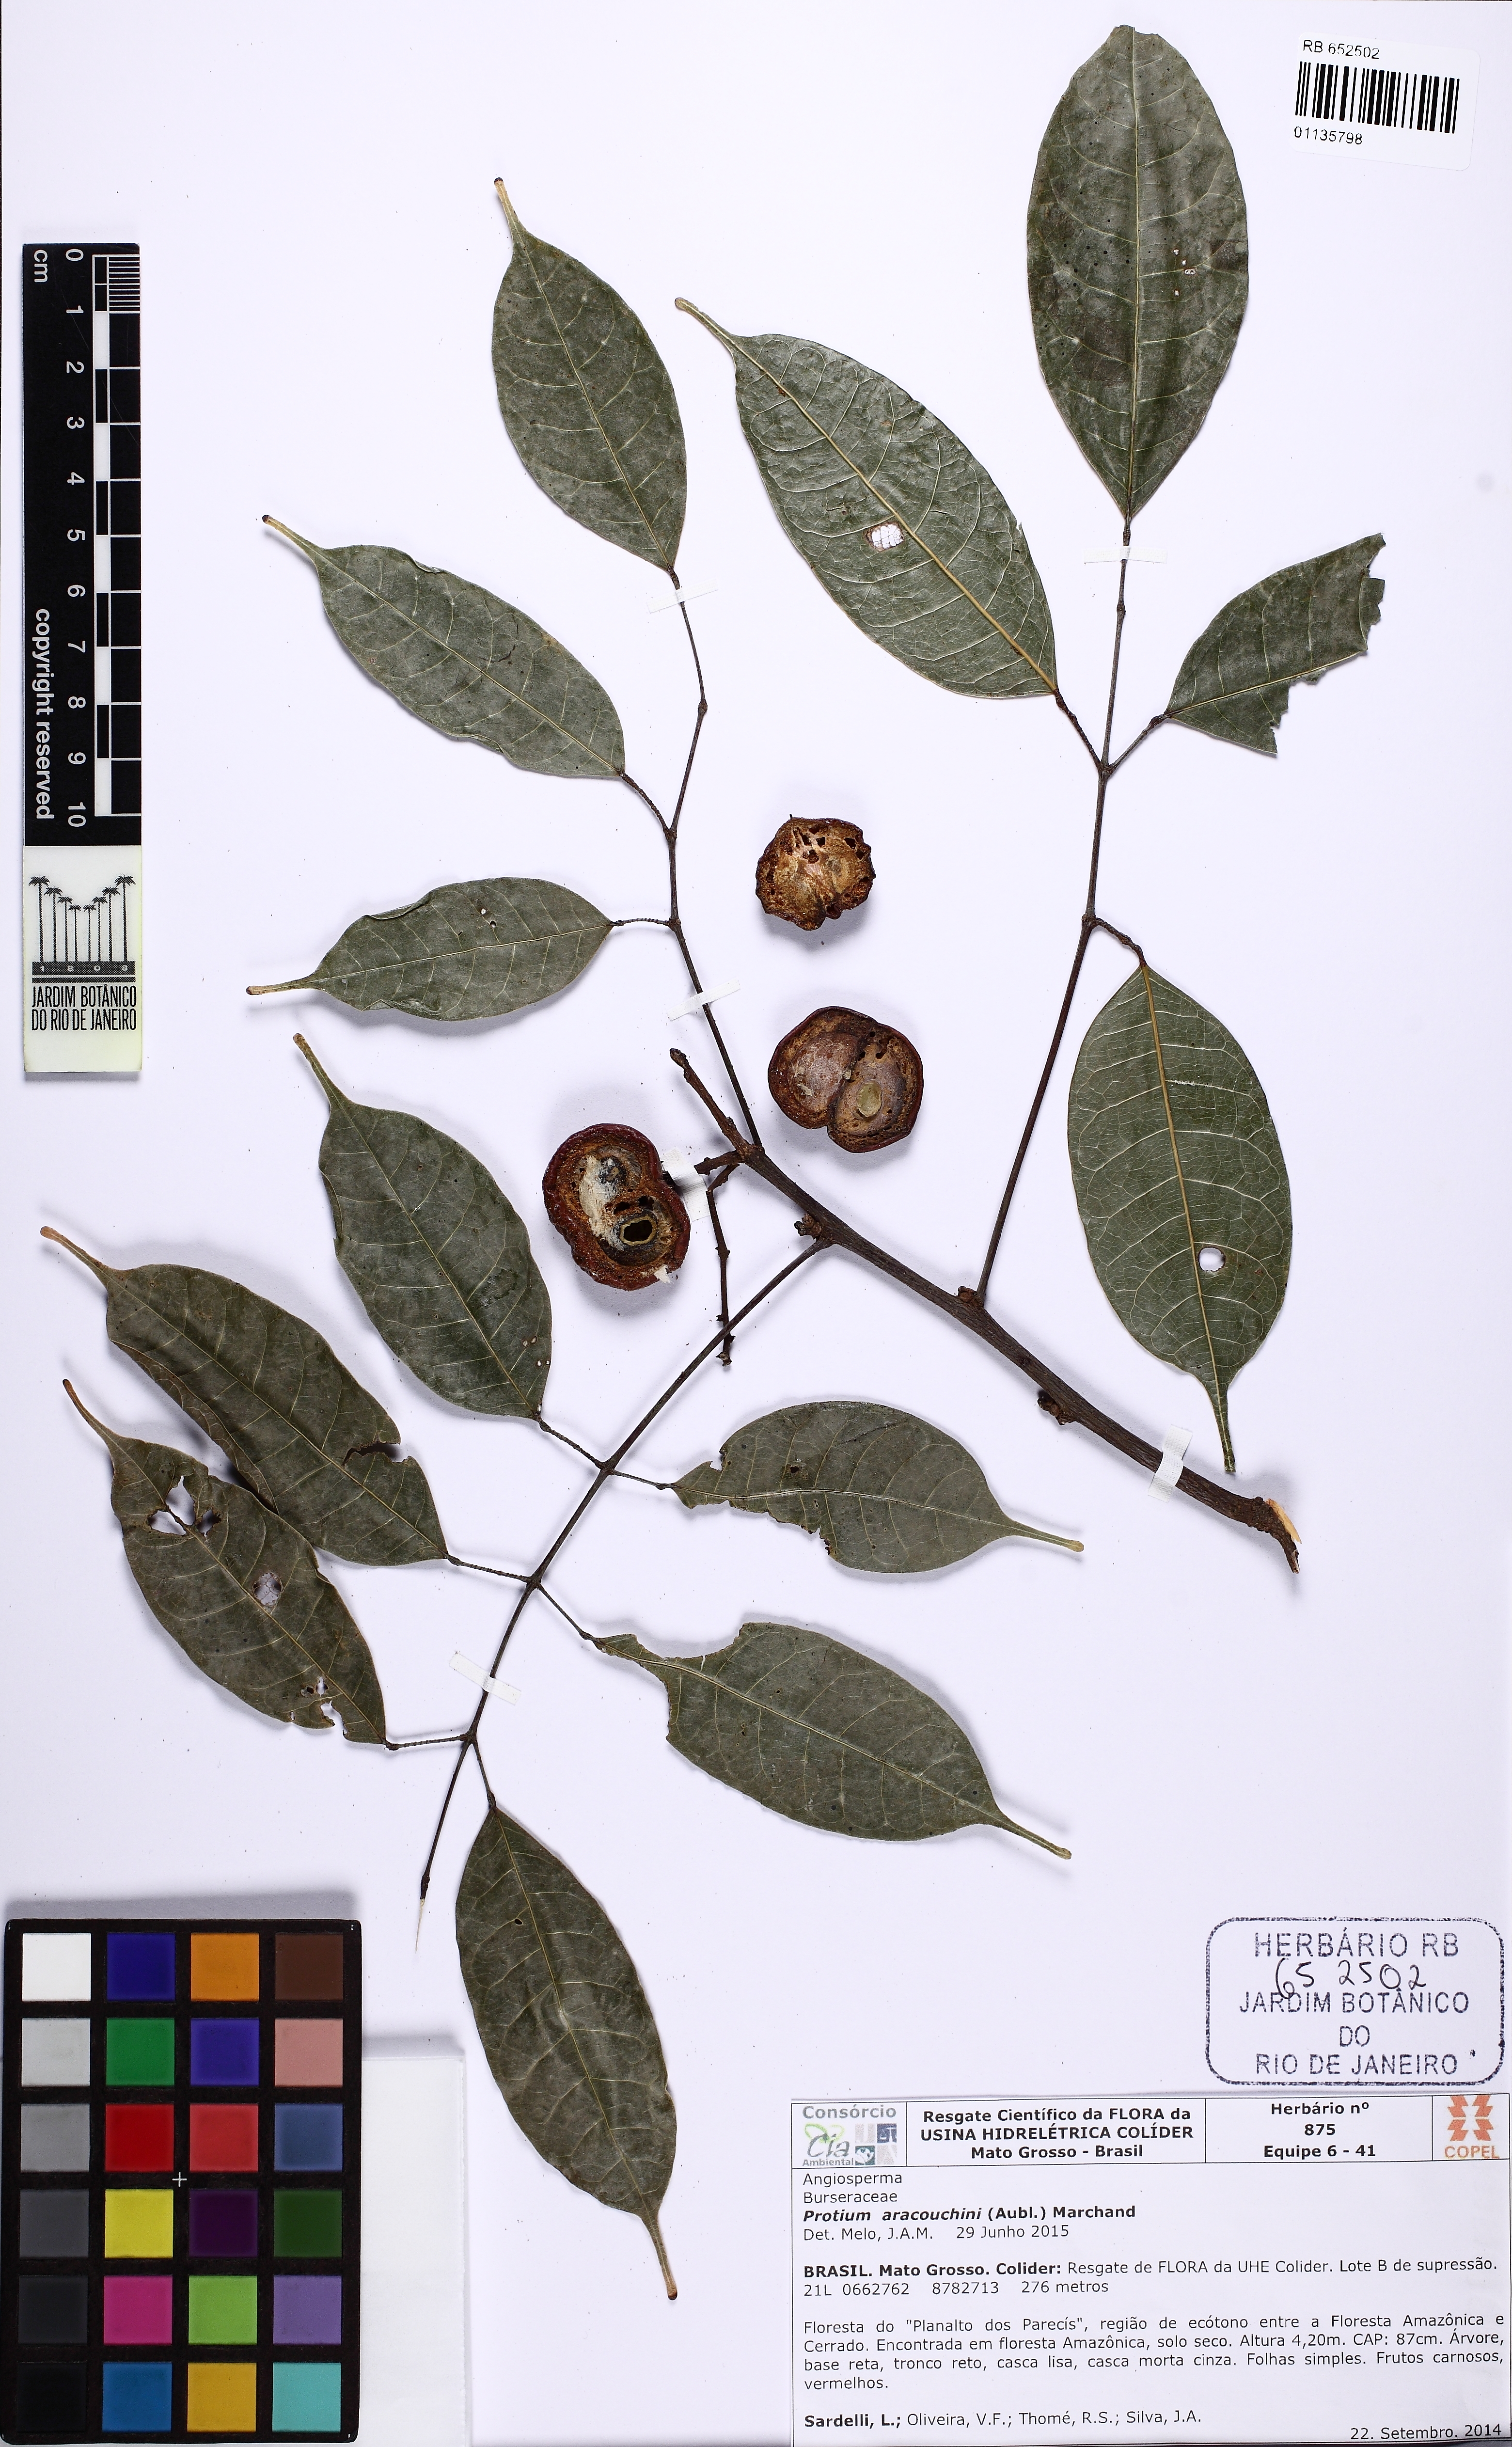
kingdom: Plantae
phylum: Tracheophyta
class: Magnoliopsida
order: Sapindales
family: Burseraceae
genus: Protium
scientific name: Protium sagotianum
